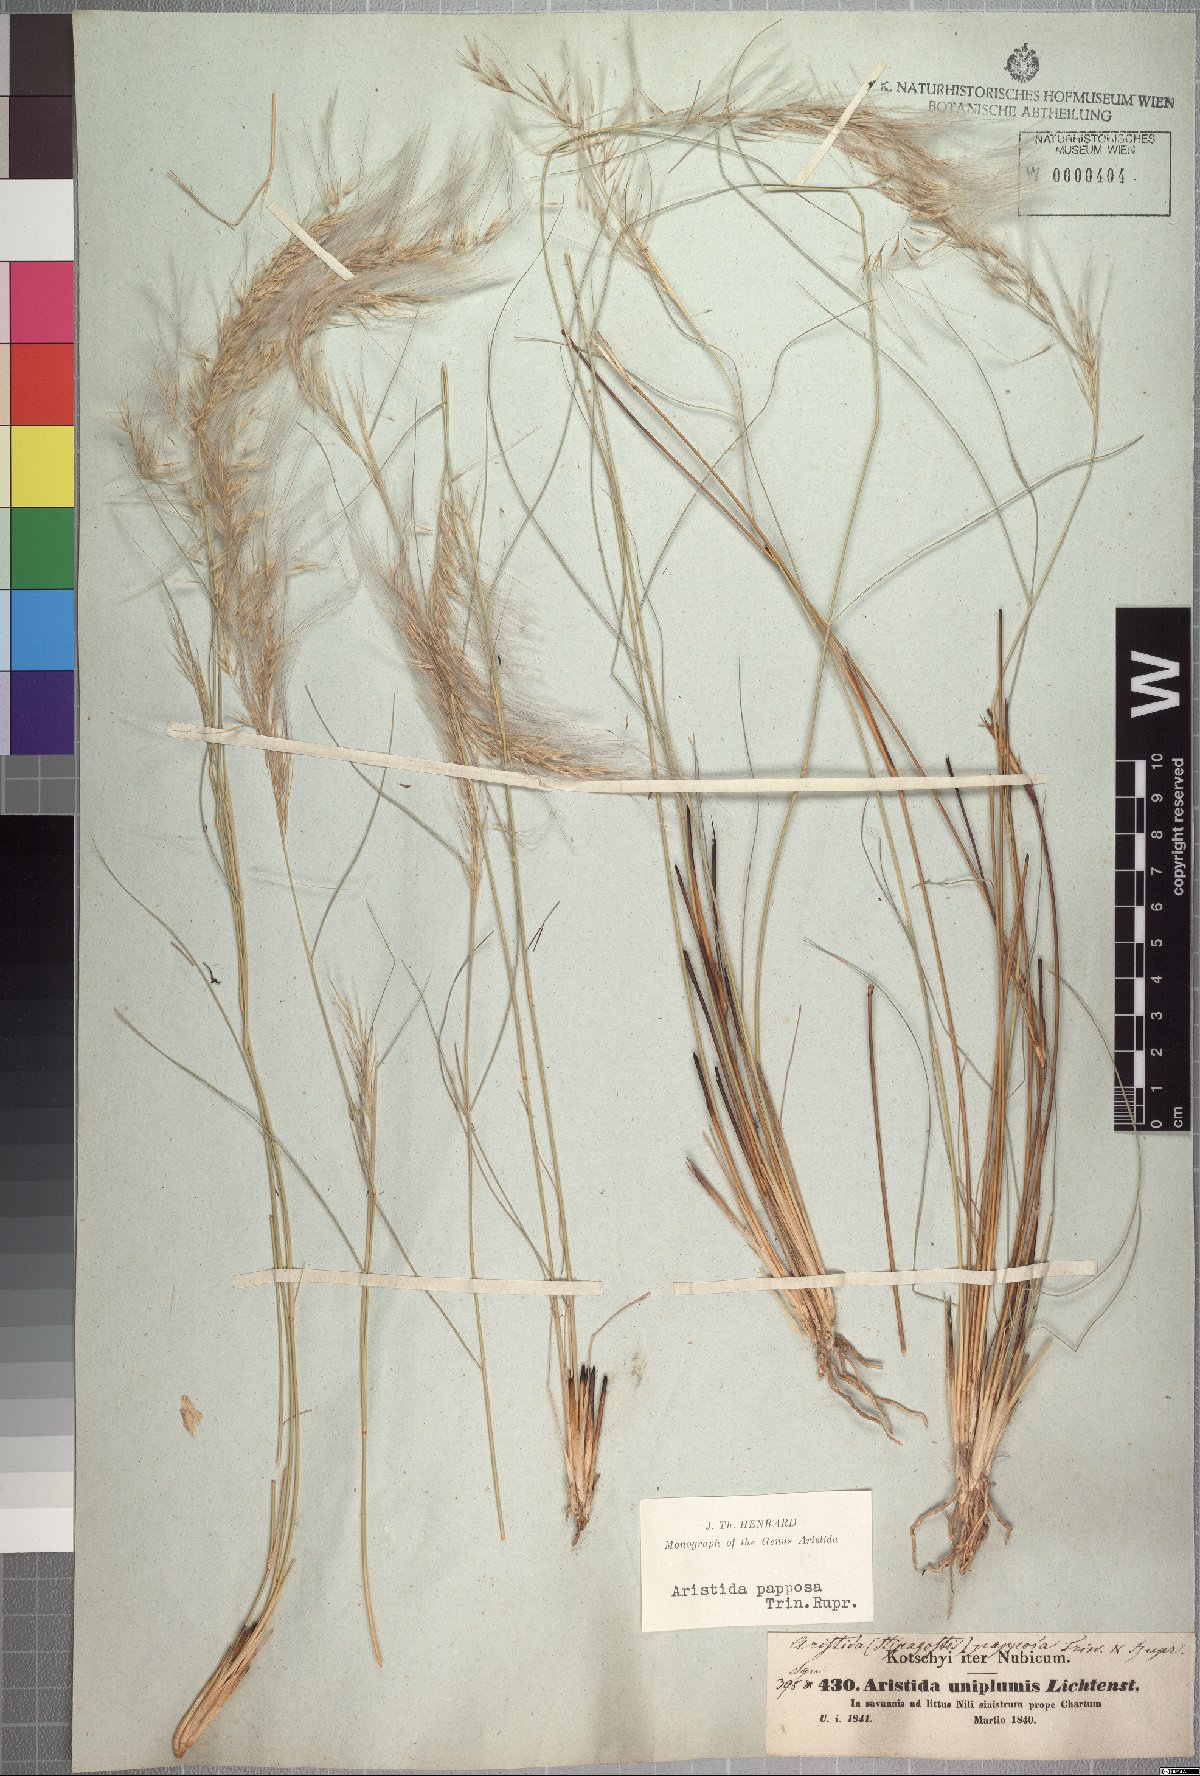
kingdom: Plantae
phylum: Tracheophyta
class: Liliopsida
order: Poales
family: Poaceae
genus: Stipagrostis
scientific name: Stipagrostis uniplumis
